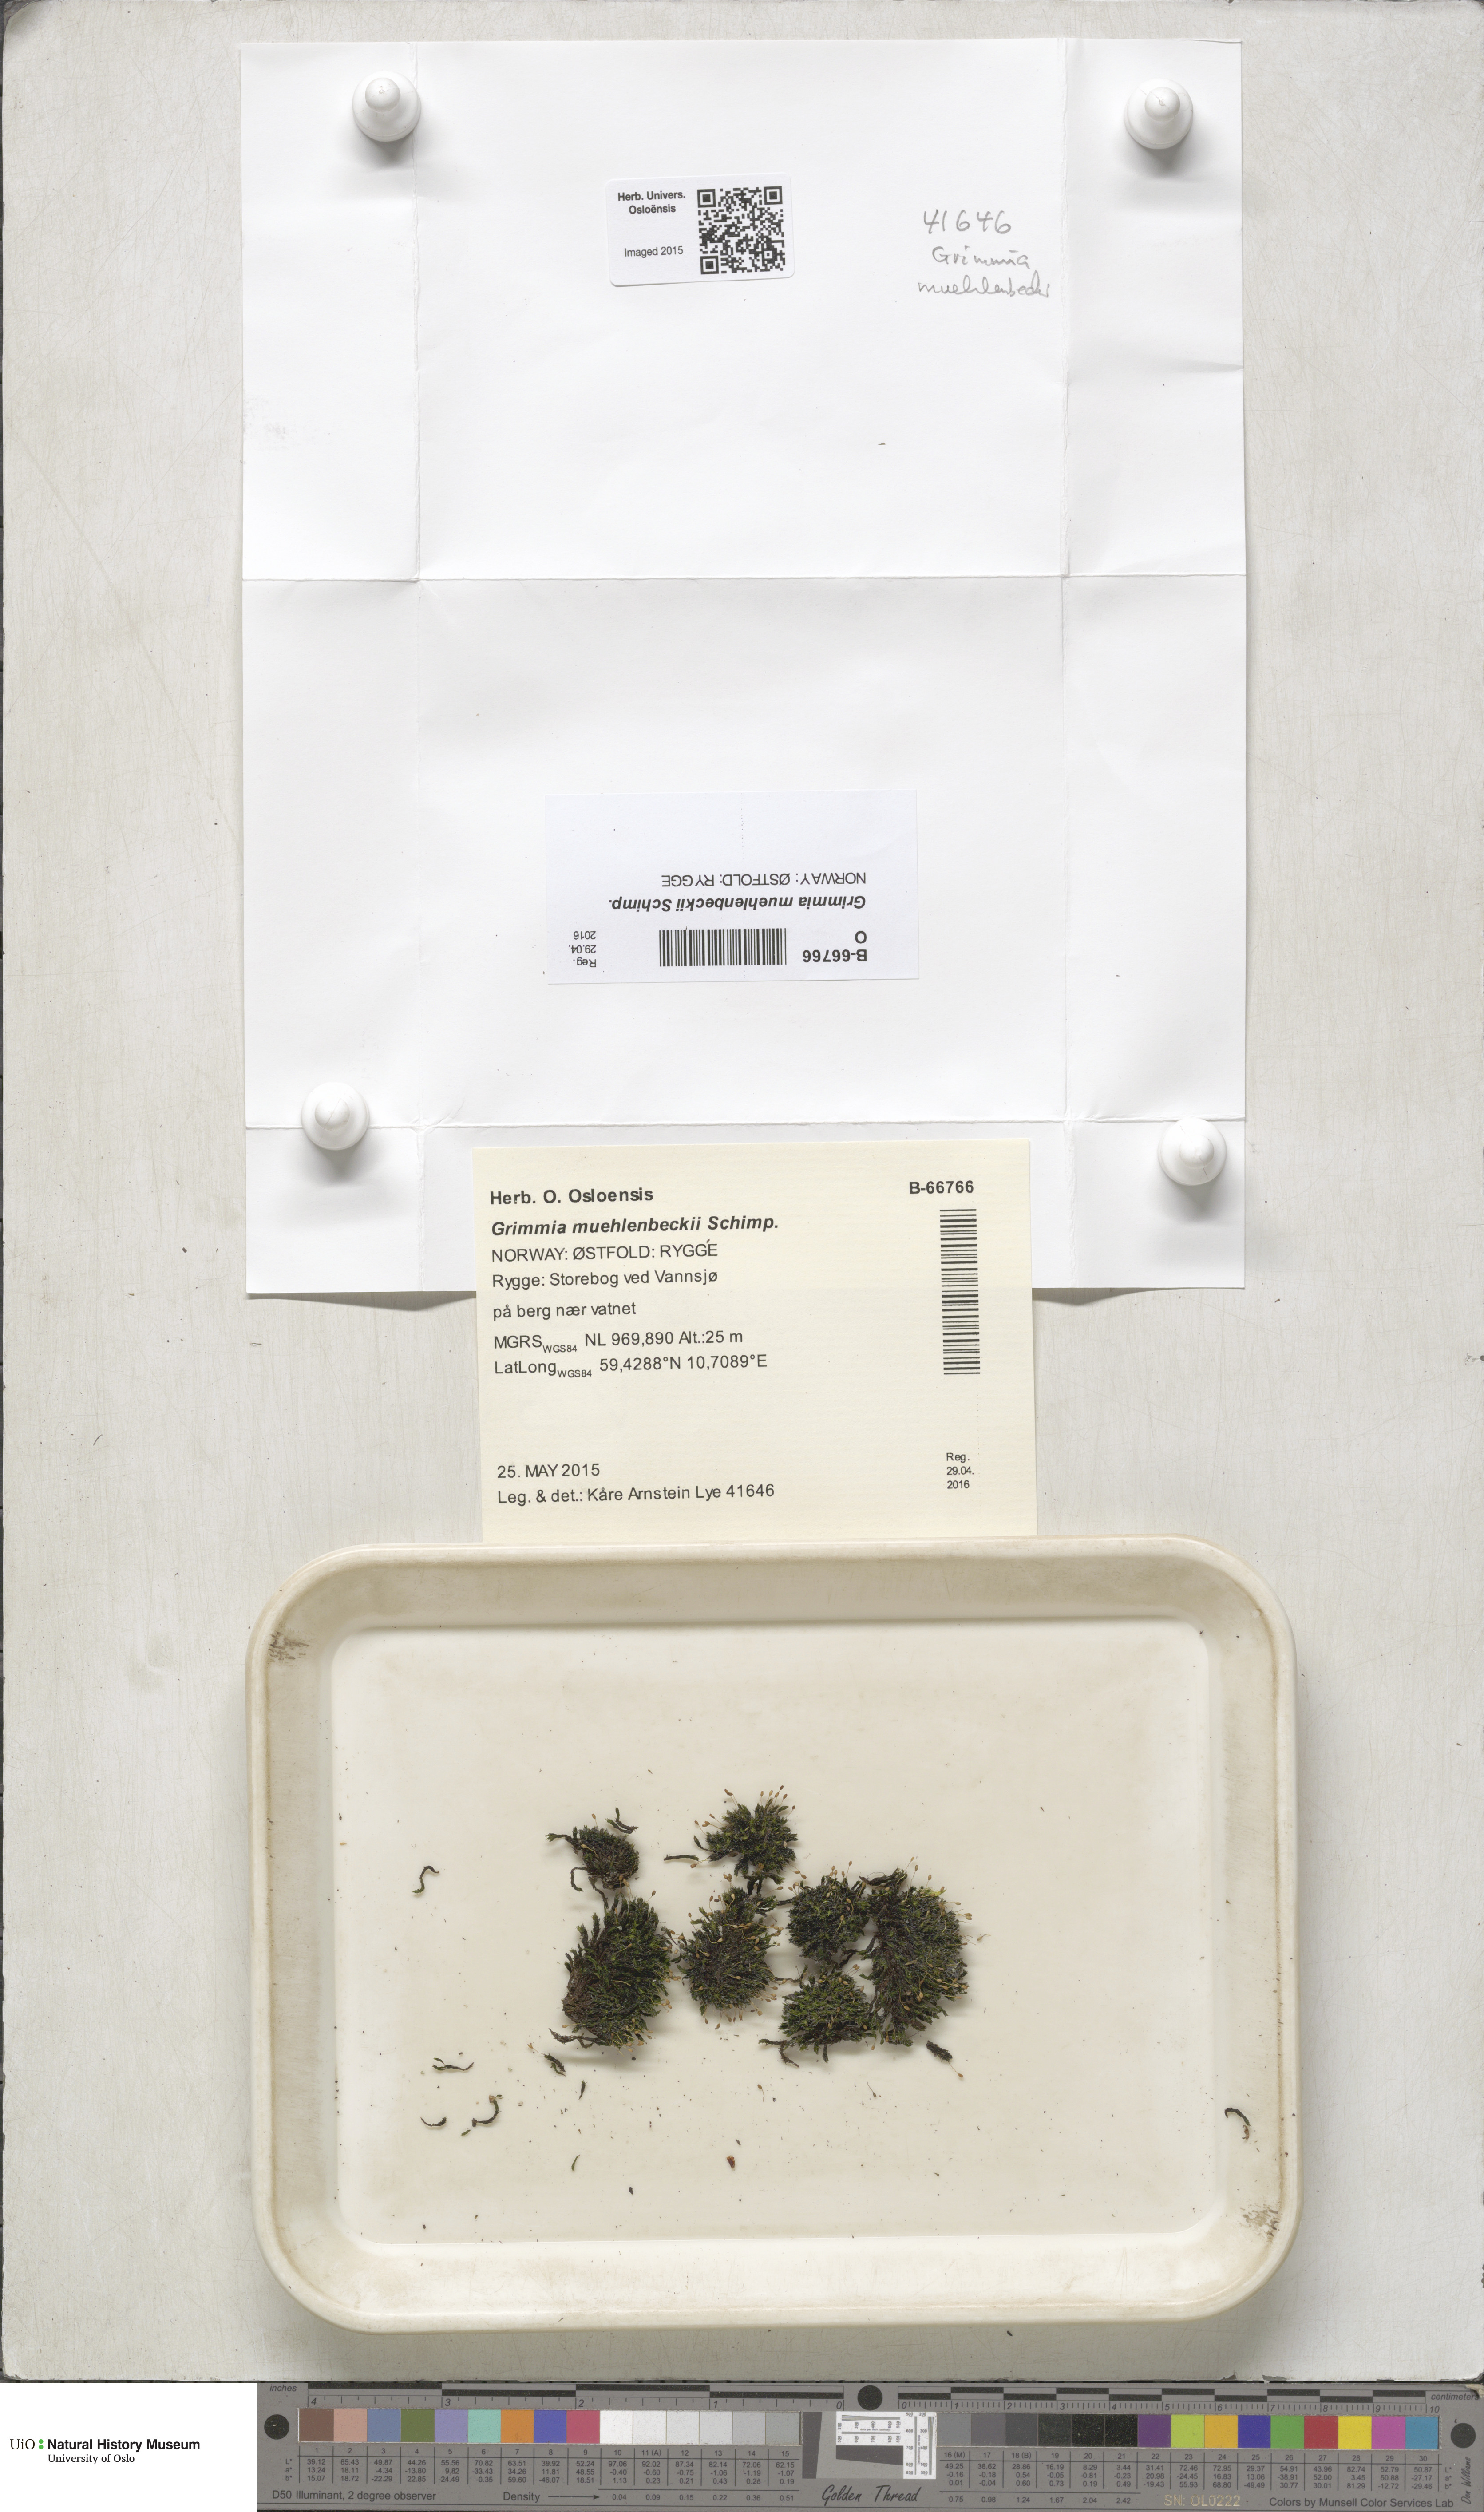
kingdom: Plantae
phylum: Bryophyta
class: Bryopsida
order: Grimmiales
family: Grimmiaceae
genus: Grimmia
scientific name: Grimmia muehlenbeckii
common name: Muehlenbeck's grimmia
